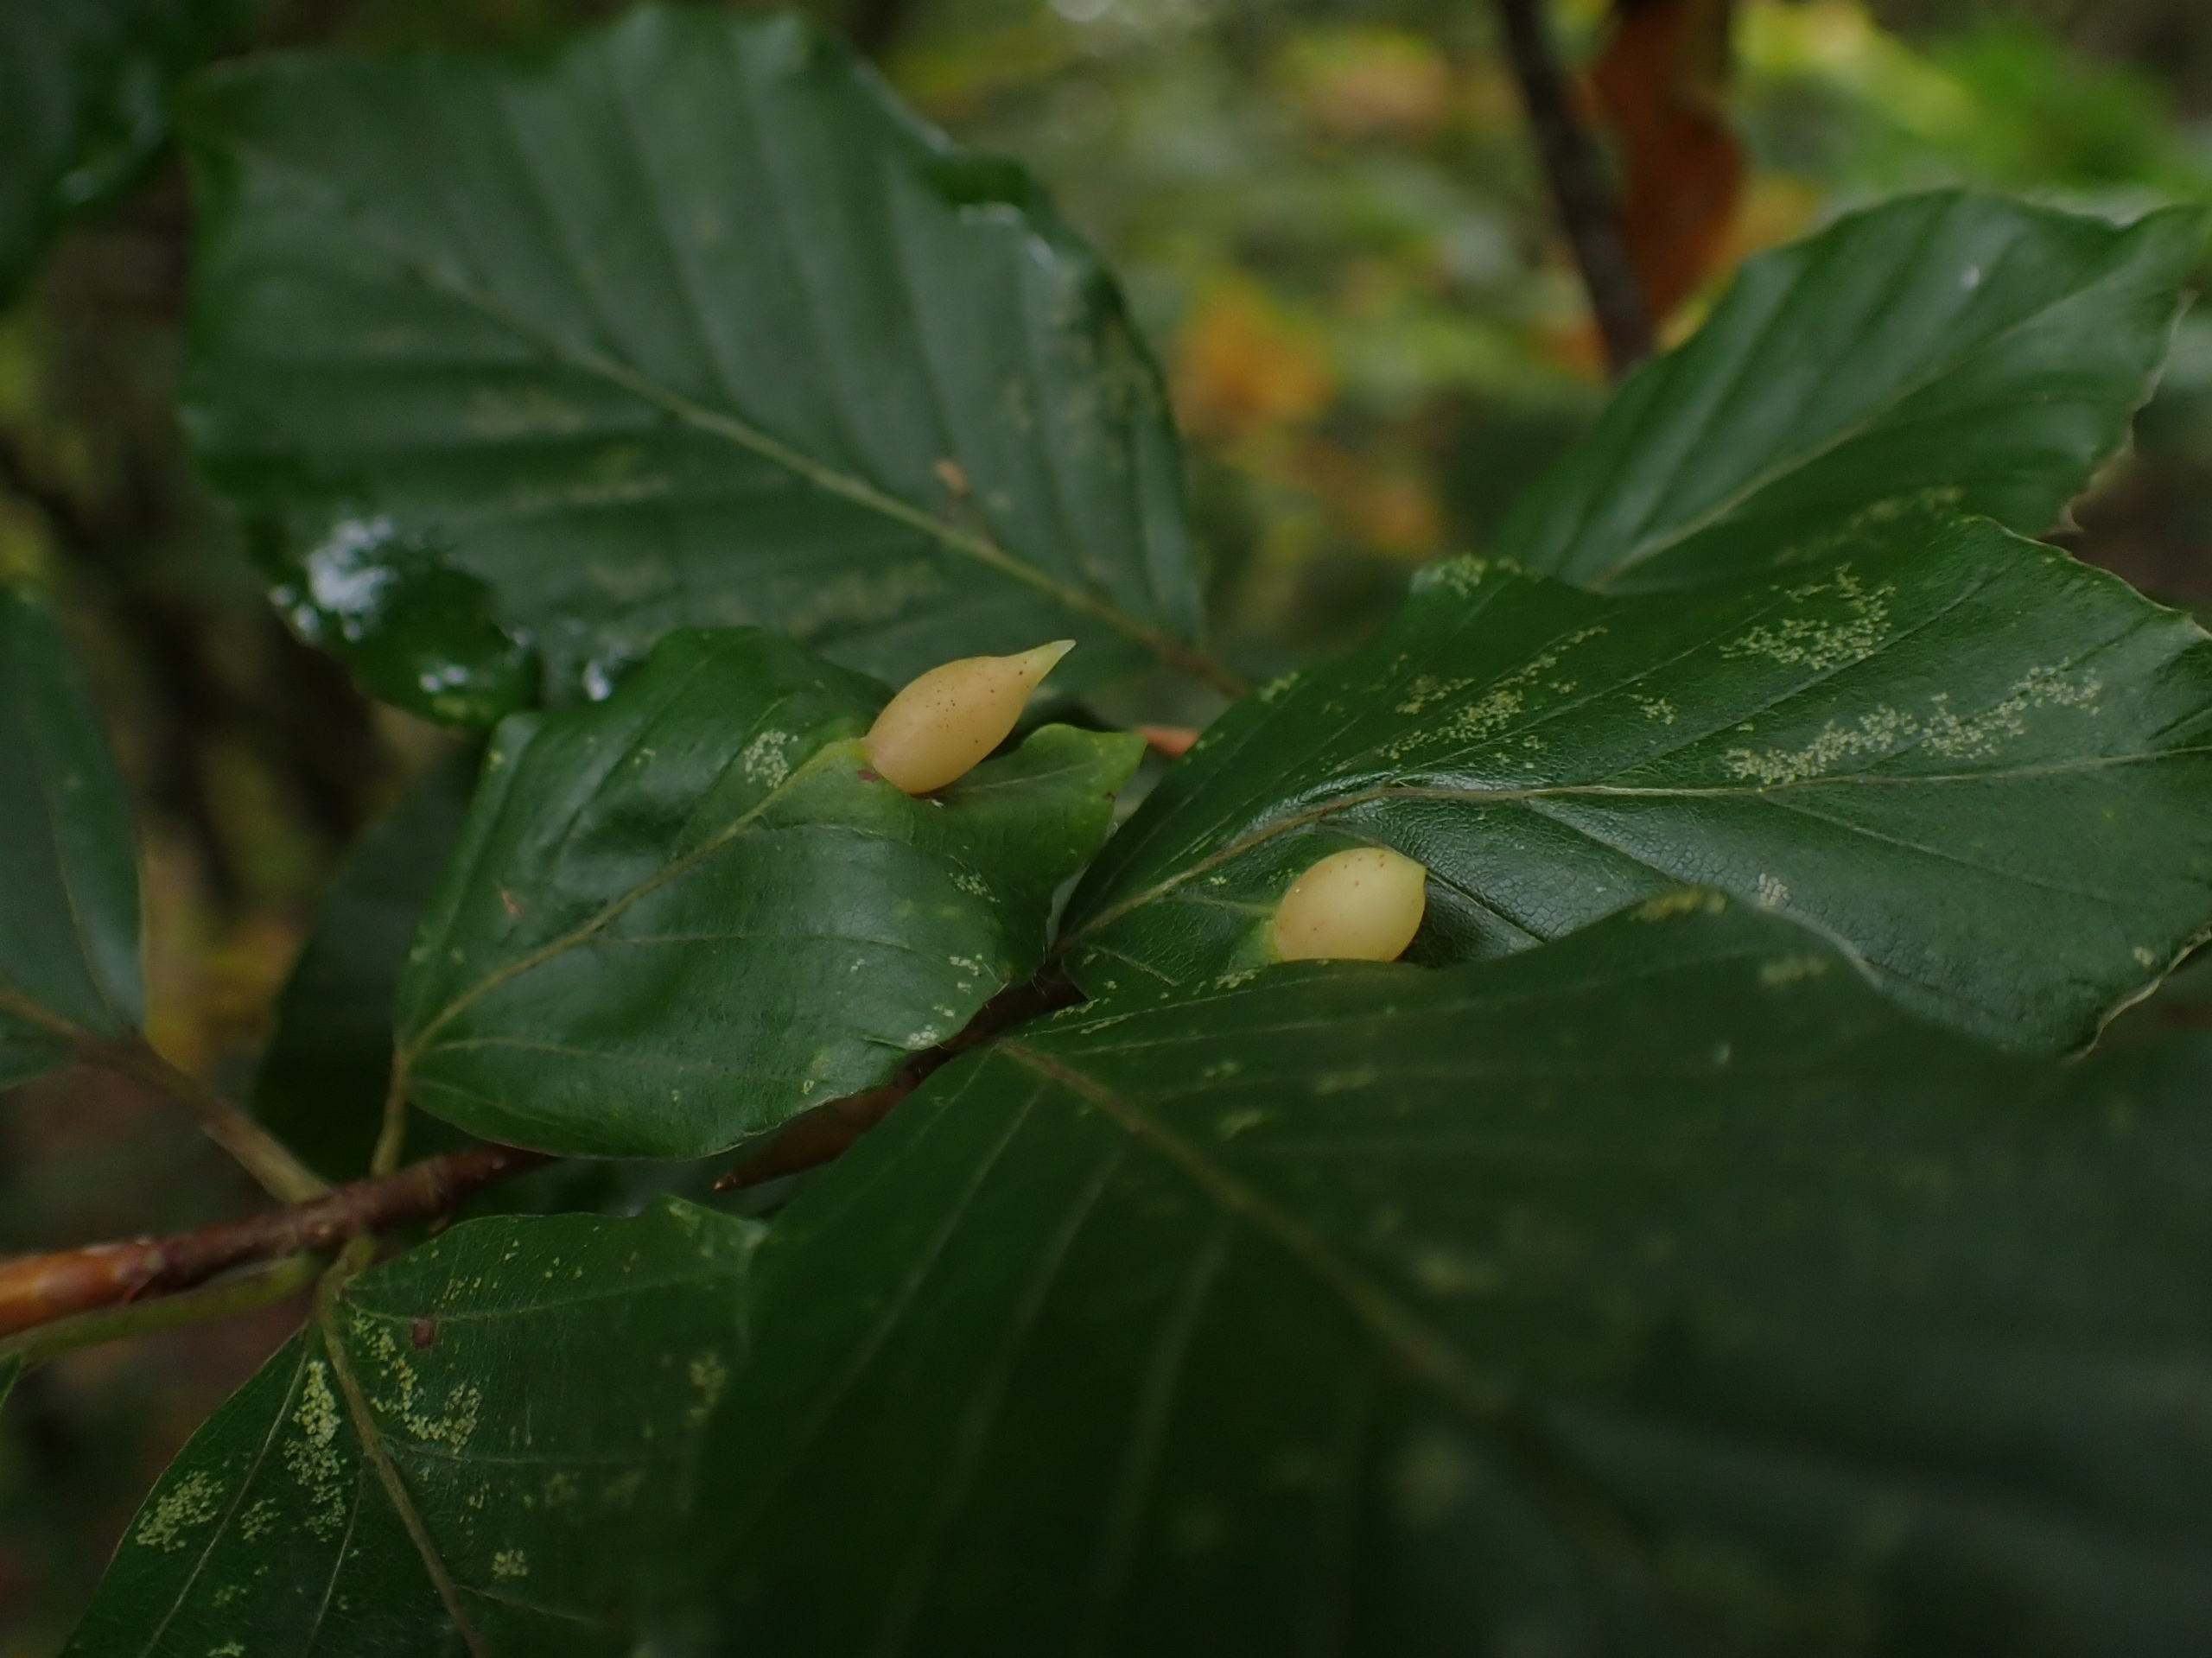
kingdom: Animalia
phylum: Arthropoda
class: Insecta
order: Diptera
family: Cecidomyiidae
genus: Mikiola
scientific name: Mikiola fagi
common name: Bøgegalmyg
